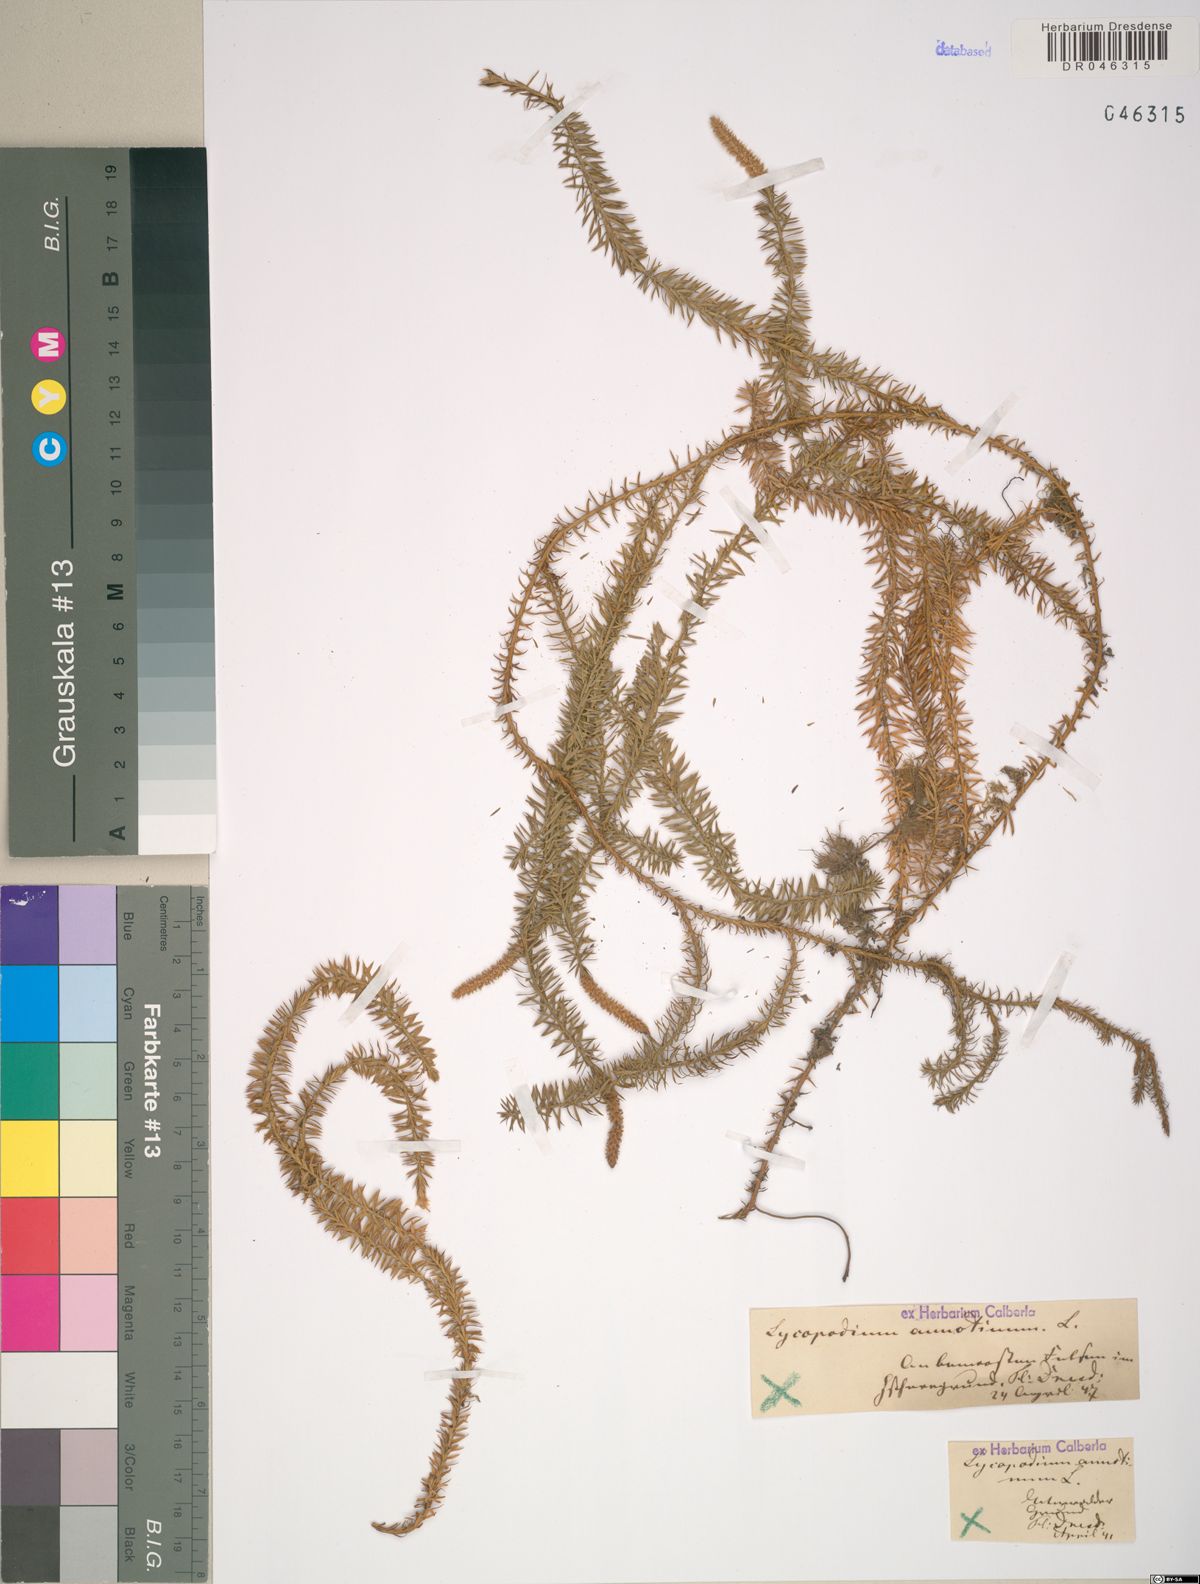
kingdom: Plantae
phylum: Tracheophyta
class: Lycopodiopsida
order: Lycopodiales
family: Lycopodiaceae
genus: Spinulum
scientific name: Spinulum annotinum
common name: Interrupted club-moss
